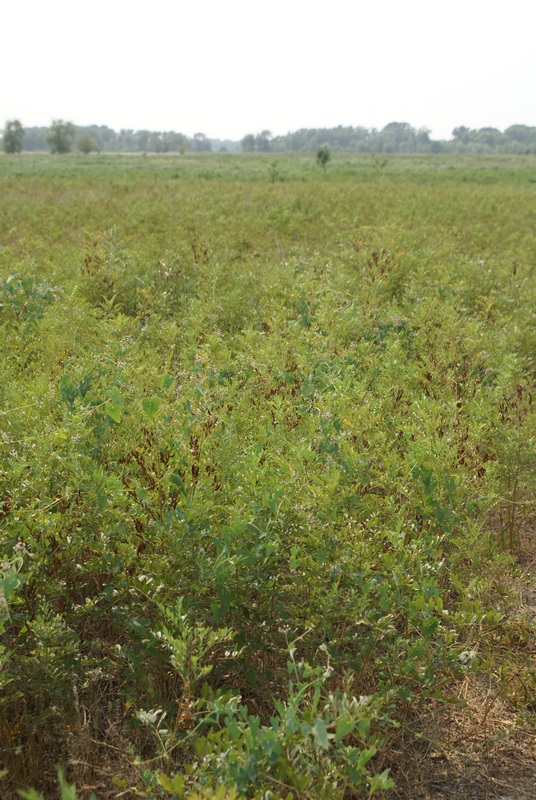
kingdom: Plantae
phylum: Tracheophyta
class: Magnoliopsida
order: Fabales
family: Fabaceae
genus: Glycyrrhiza
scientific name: Glycyrrhiza glabra
